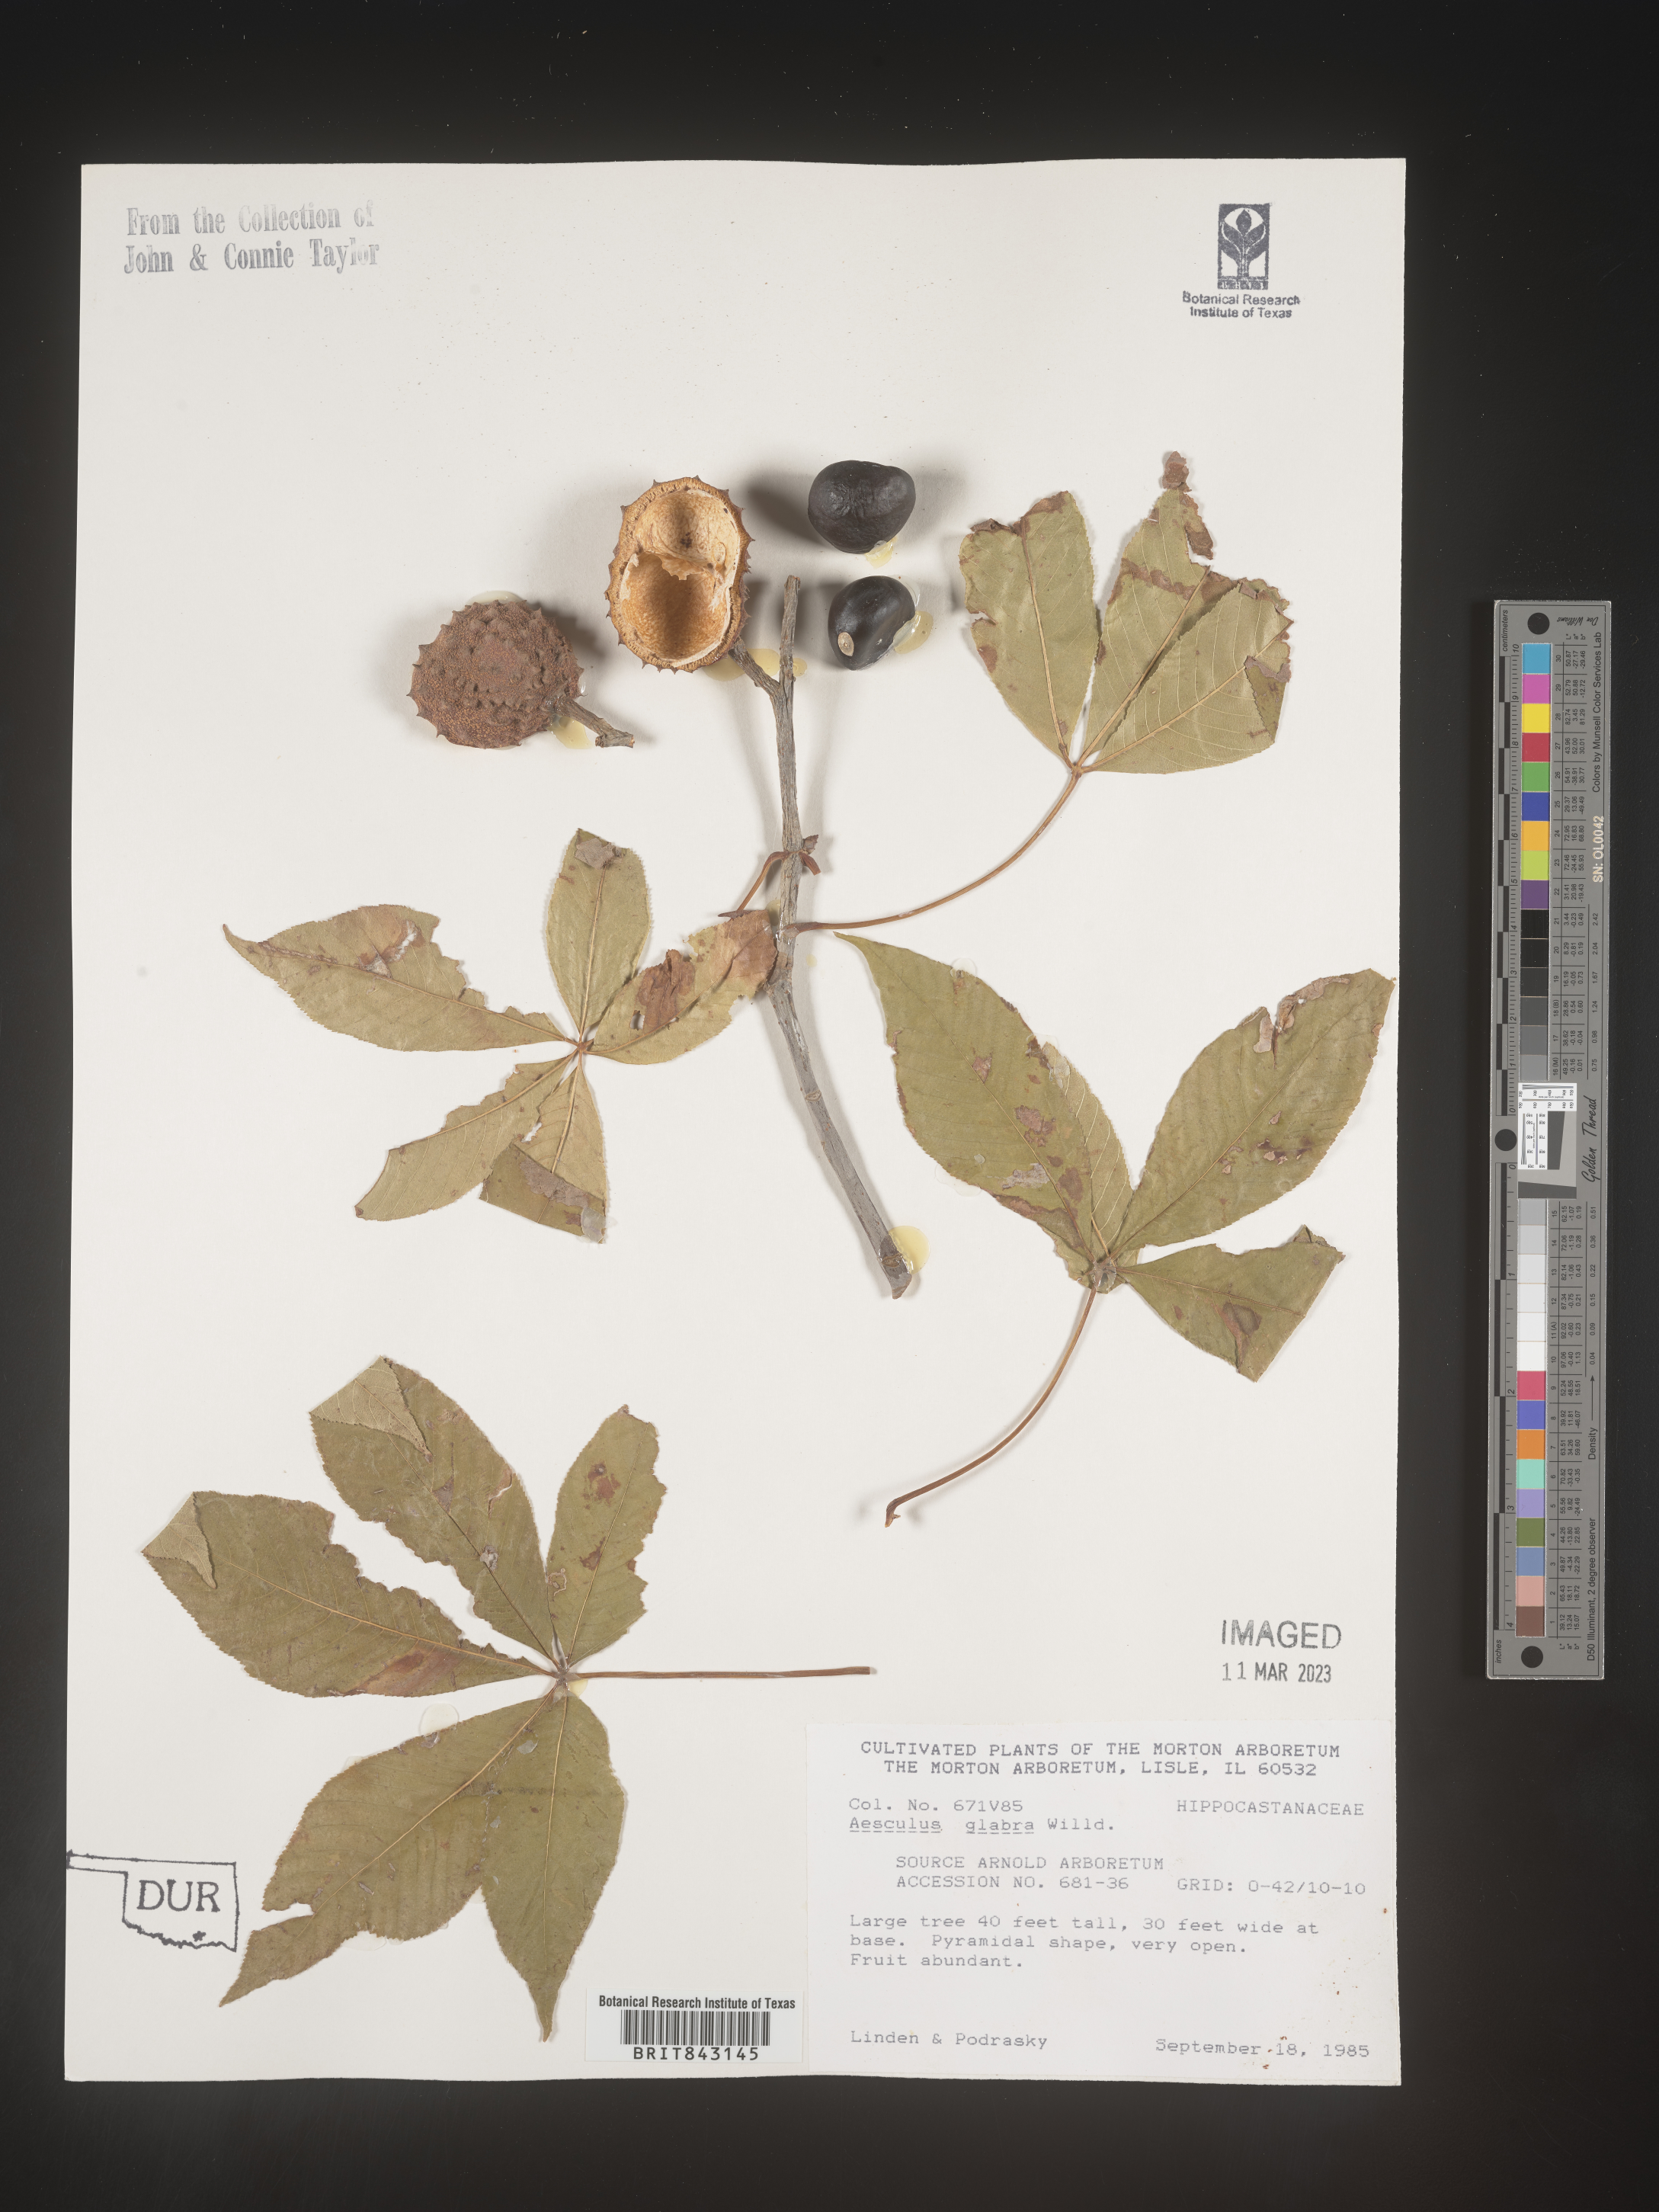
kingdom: Plantae
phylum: Tracheophyta
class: Magnoliopsida
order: Sapindales
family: Sapindaceae
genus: Aesculus
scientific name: Aesculus glabra
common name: Ohio buckeye
